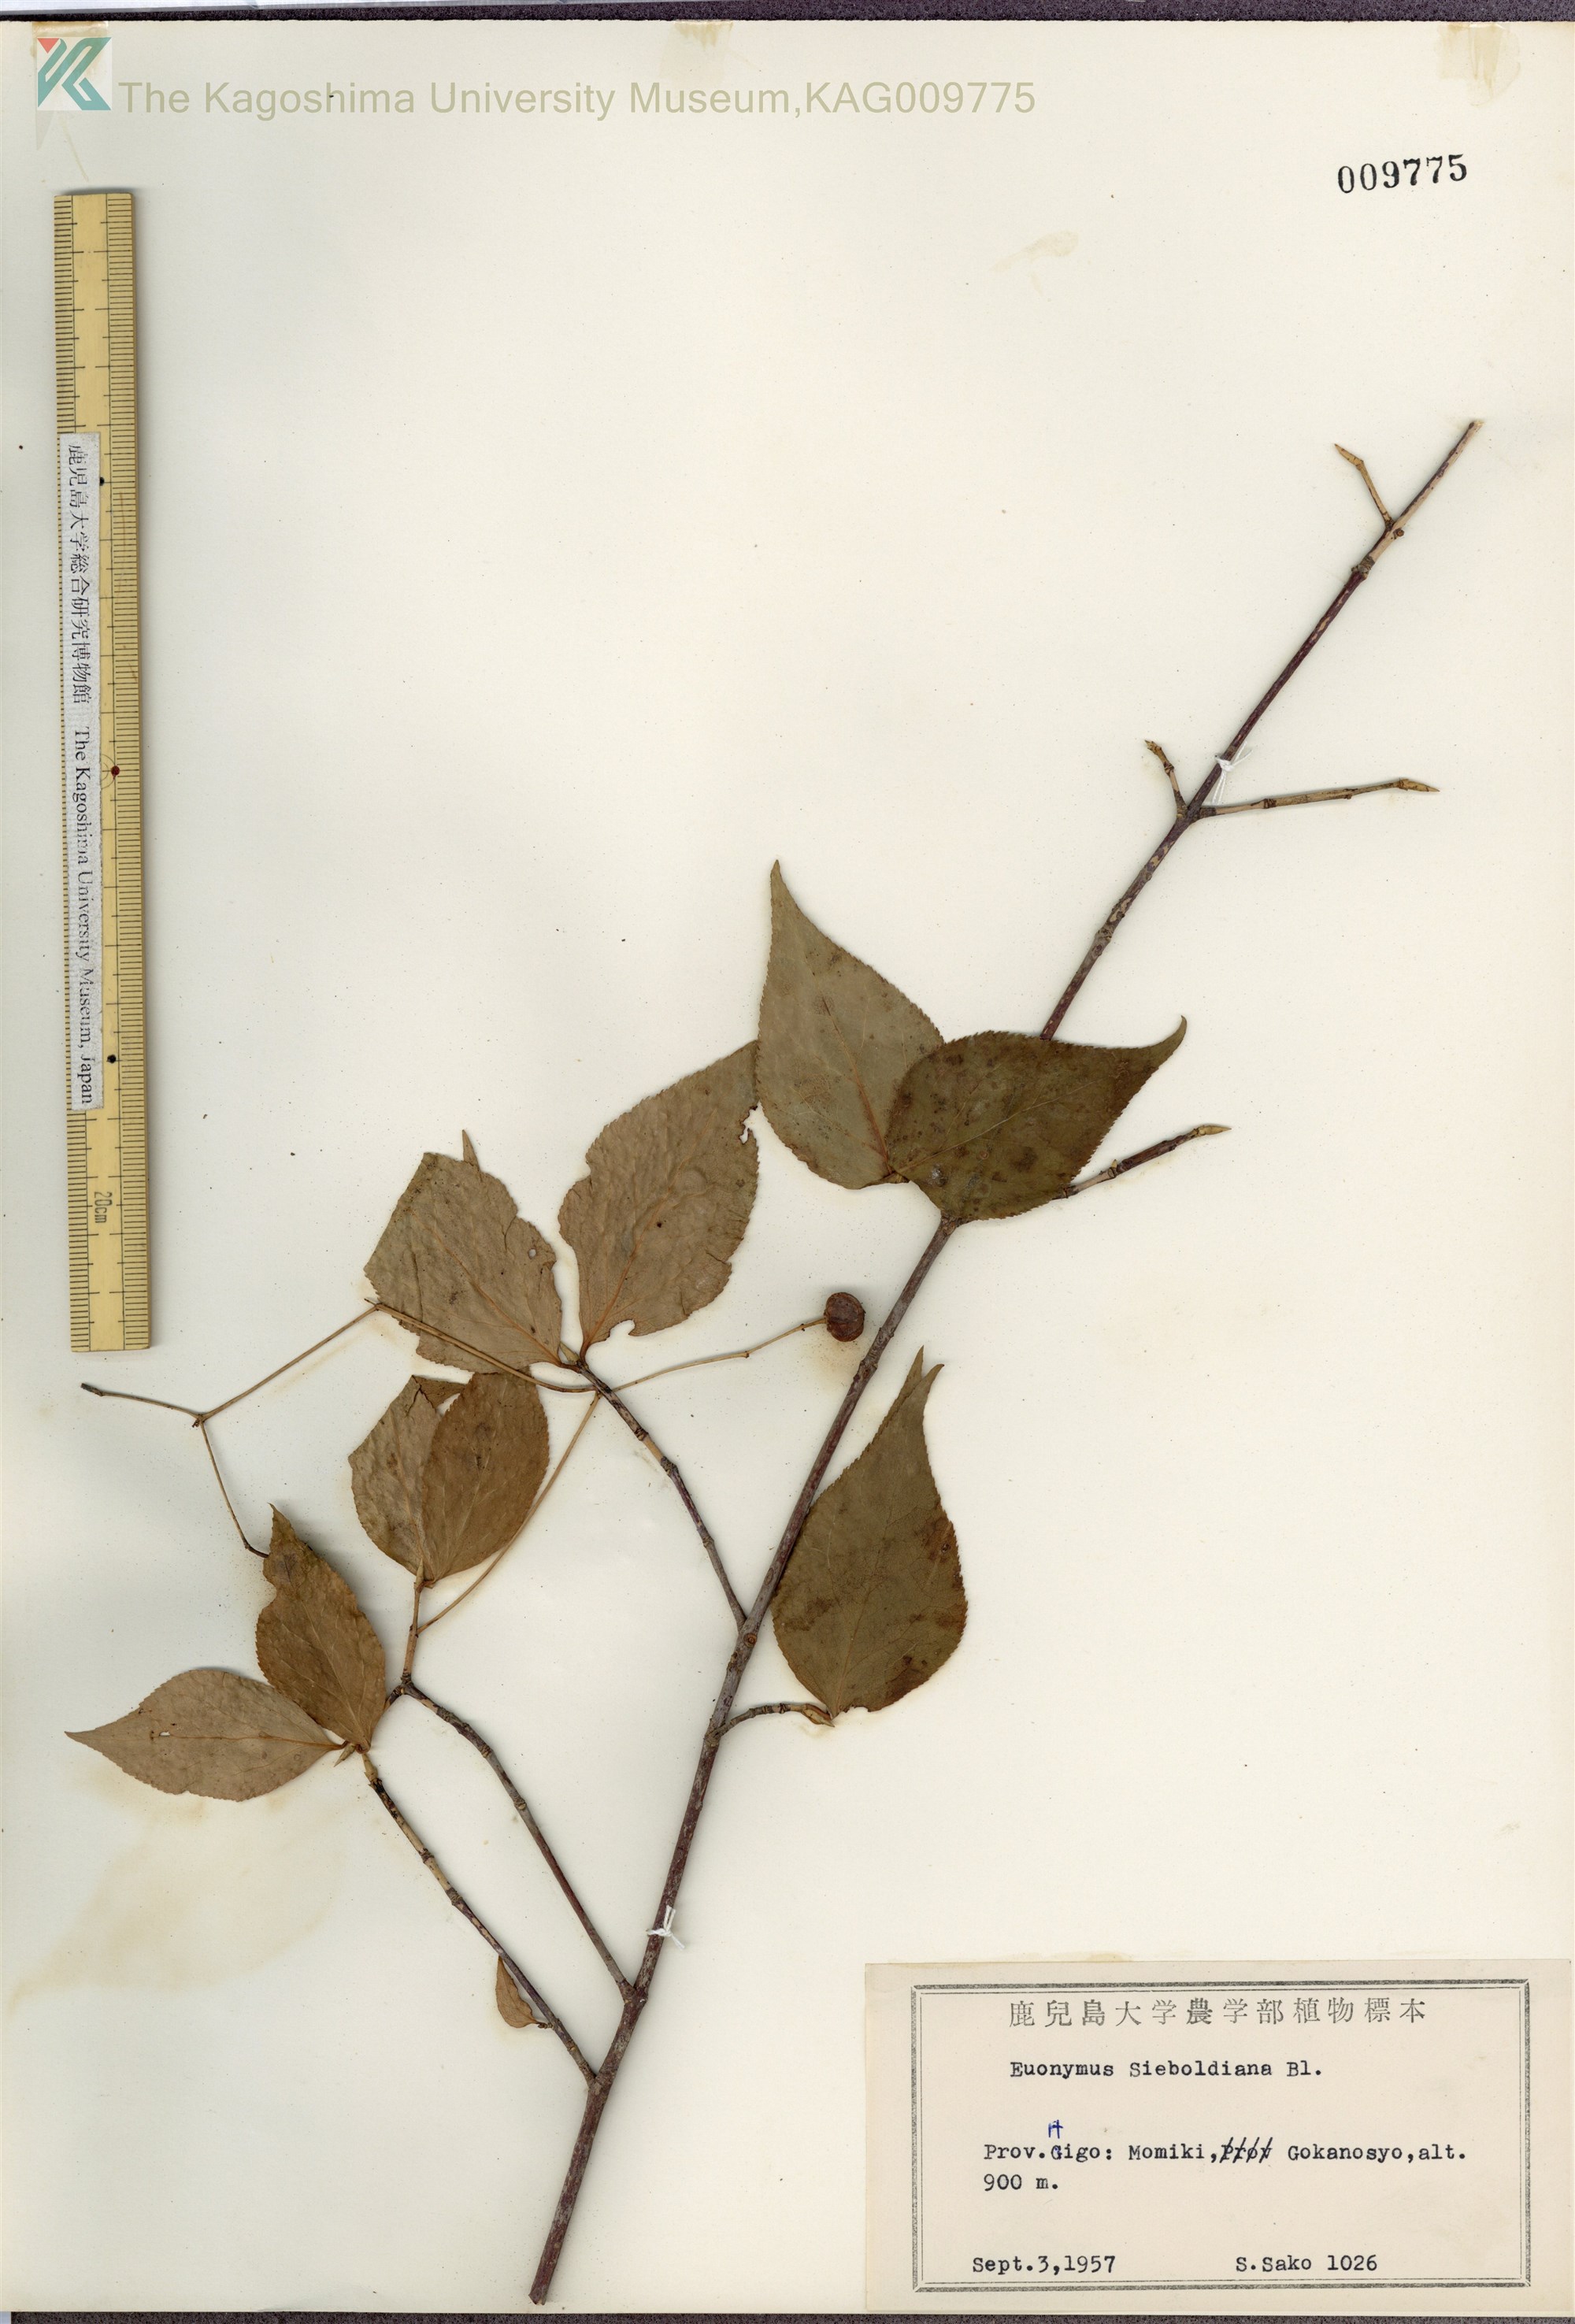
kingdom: Plantae
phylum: Tracheophyta
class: Magnoliopsida
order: Celastrales
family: Celastraceae
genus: Euonymus
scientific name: Euonymus oxyphyllus
